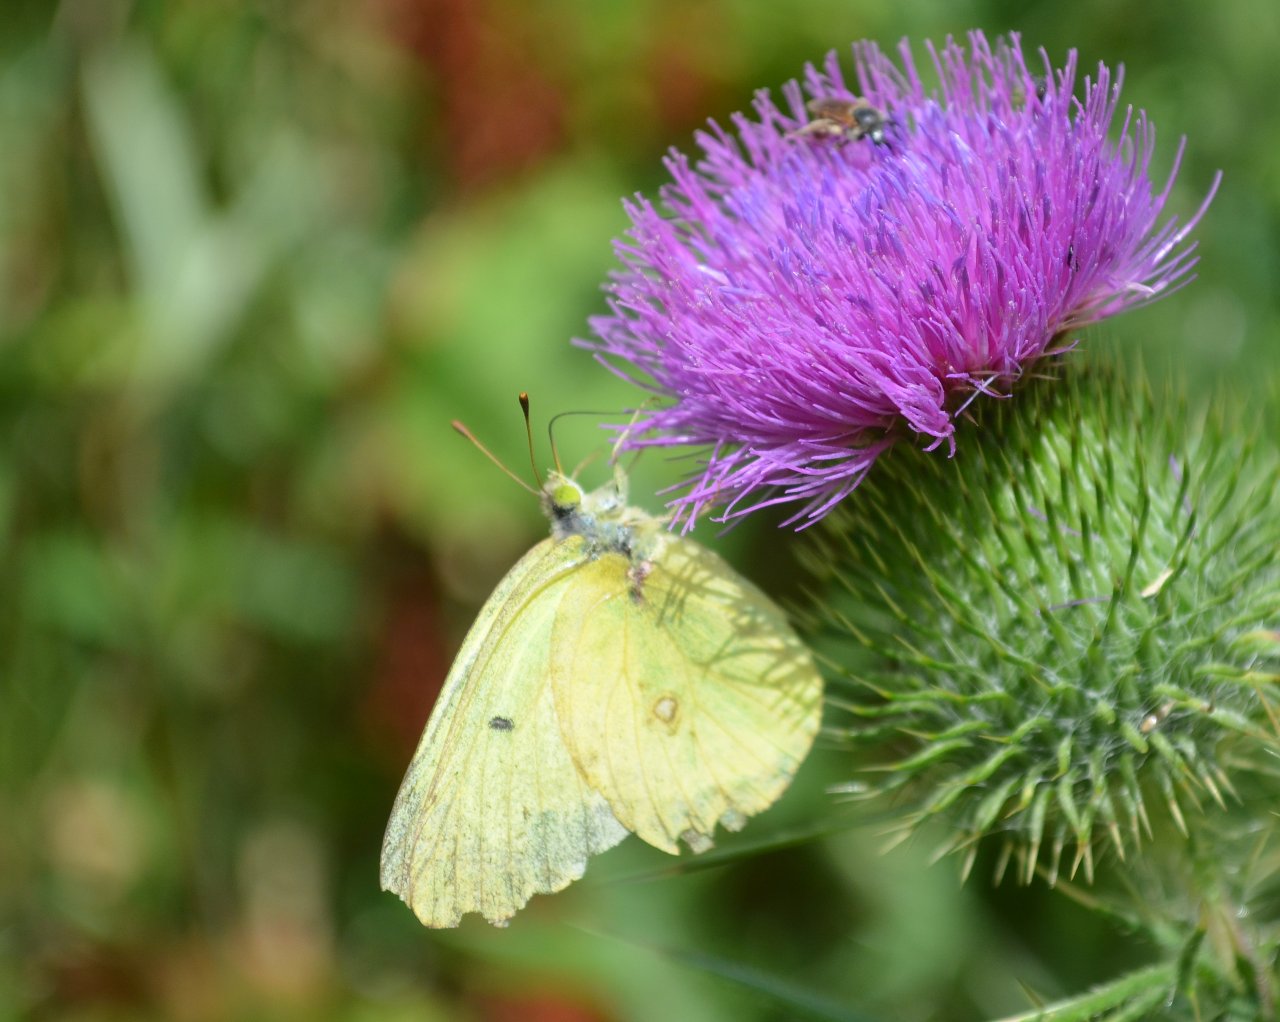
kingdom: Animalia
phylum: Arthropoda
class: Insecta
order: Lepidoptera
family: Pieridae
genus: Colias
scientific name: Colias philodice
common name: Clouded Sulphur
